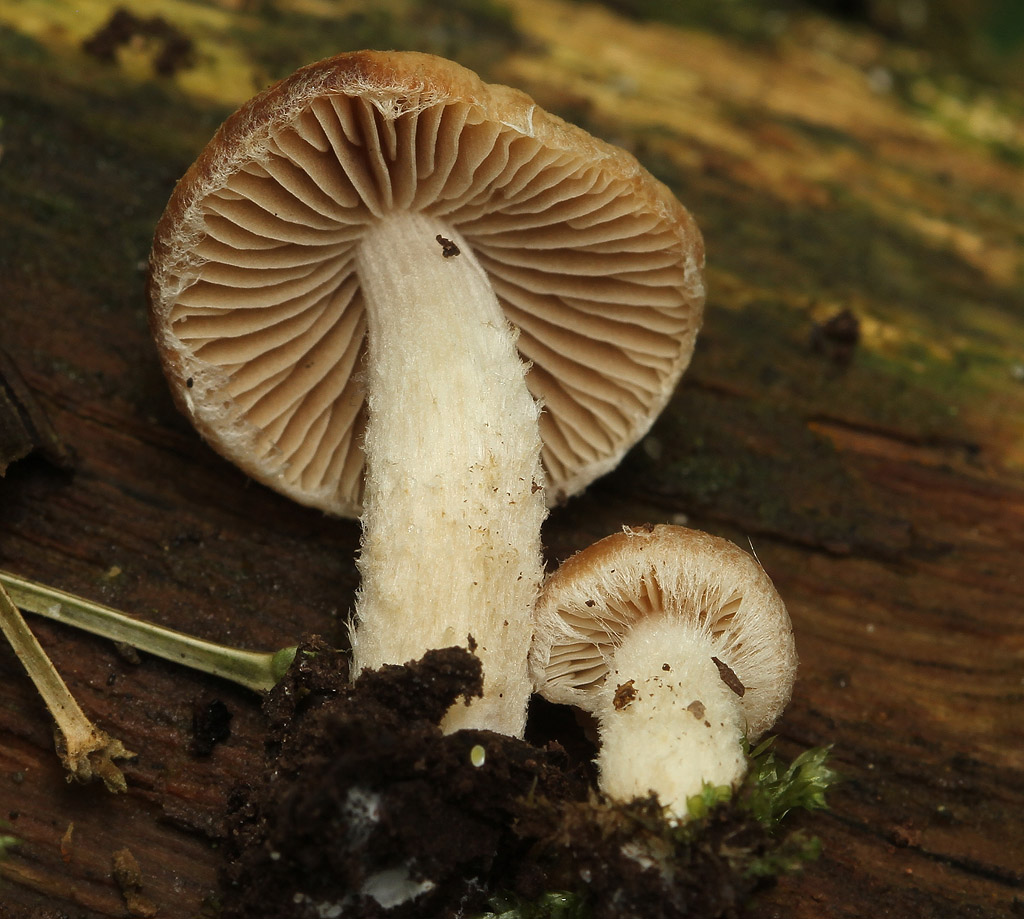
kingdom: Fungi
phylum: Basidiomycota
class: Agaricomycetes
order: Agaricales
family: Psathyrellaceae
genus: Typhrasa
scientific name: Typhrasa gossypina
